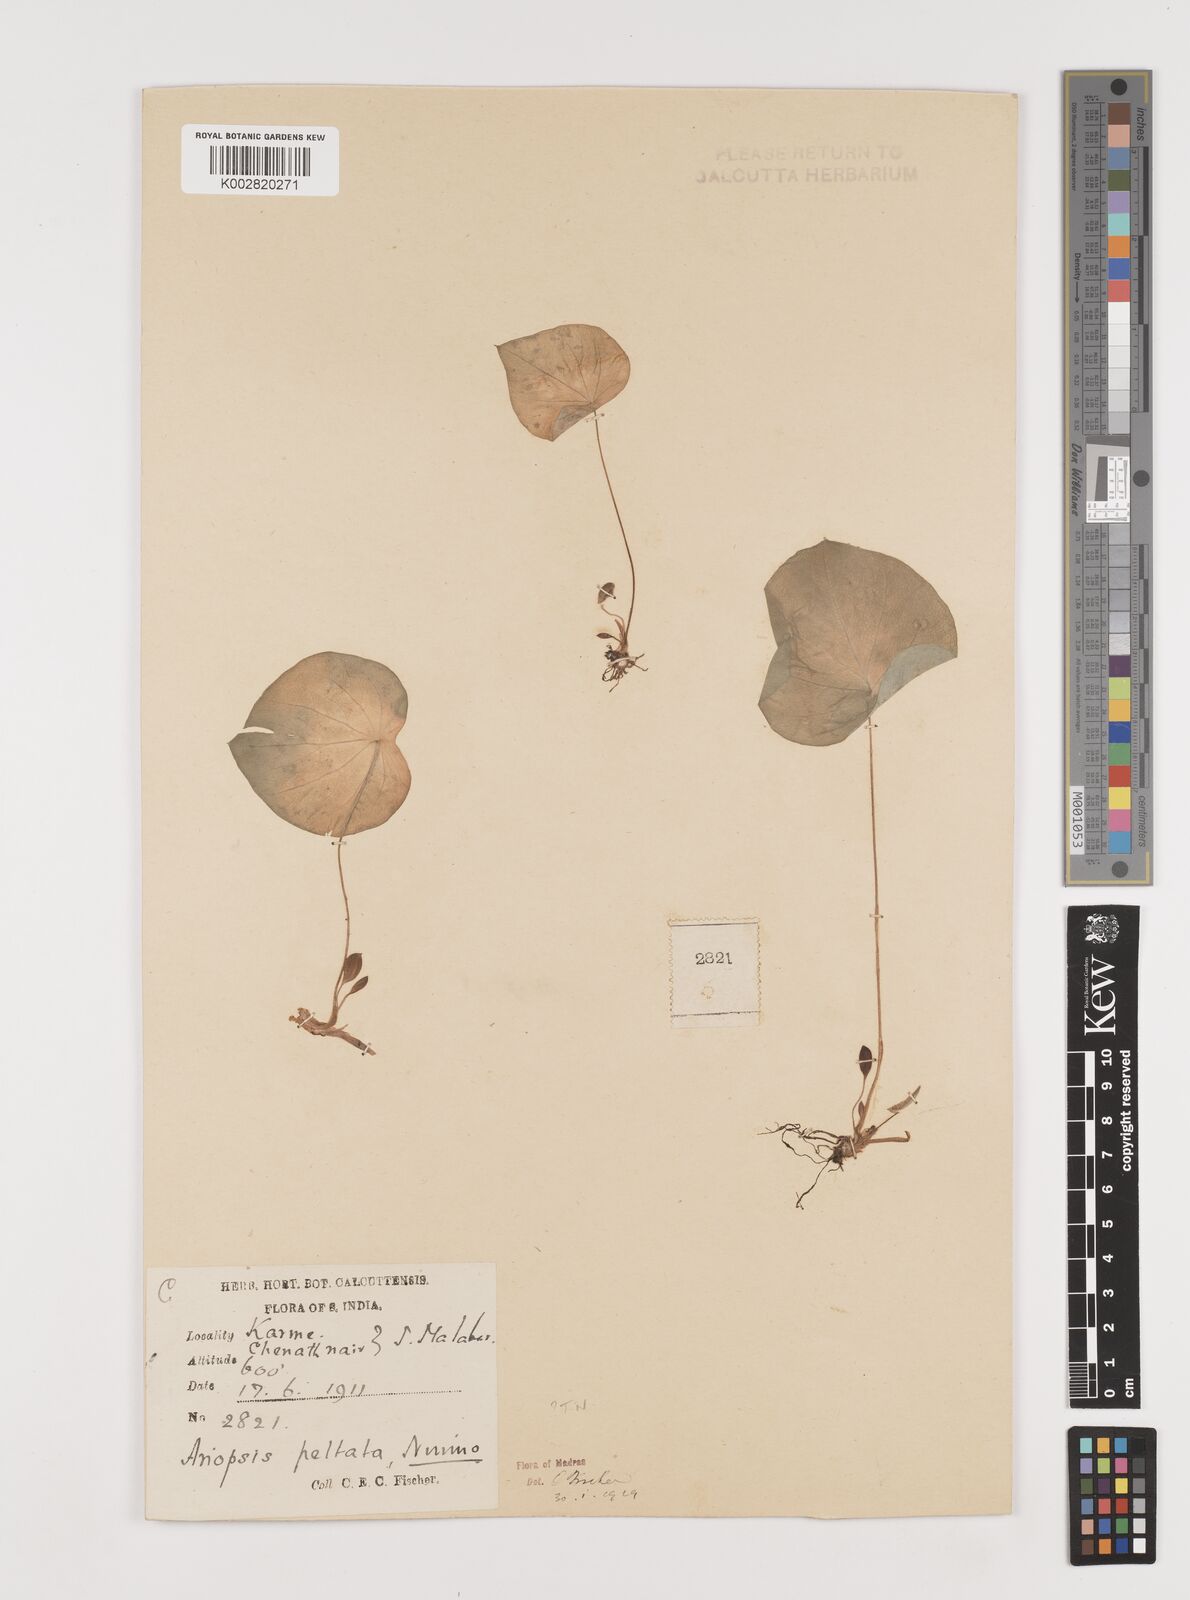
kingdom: Plantae
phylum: Tracheophyta
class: Liliopsida
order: Alismatales
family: Araceae
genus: Ariopsis
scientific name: Ariopsis peltata
